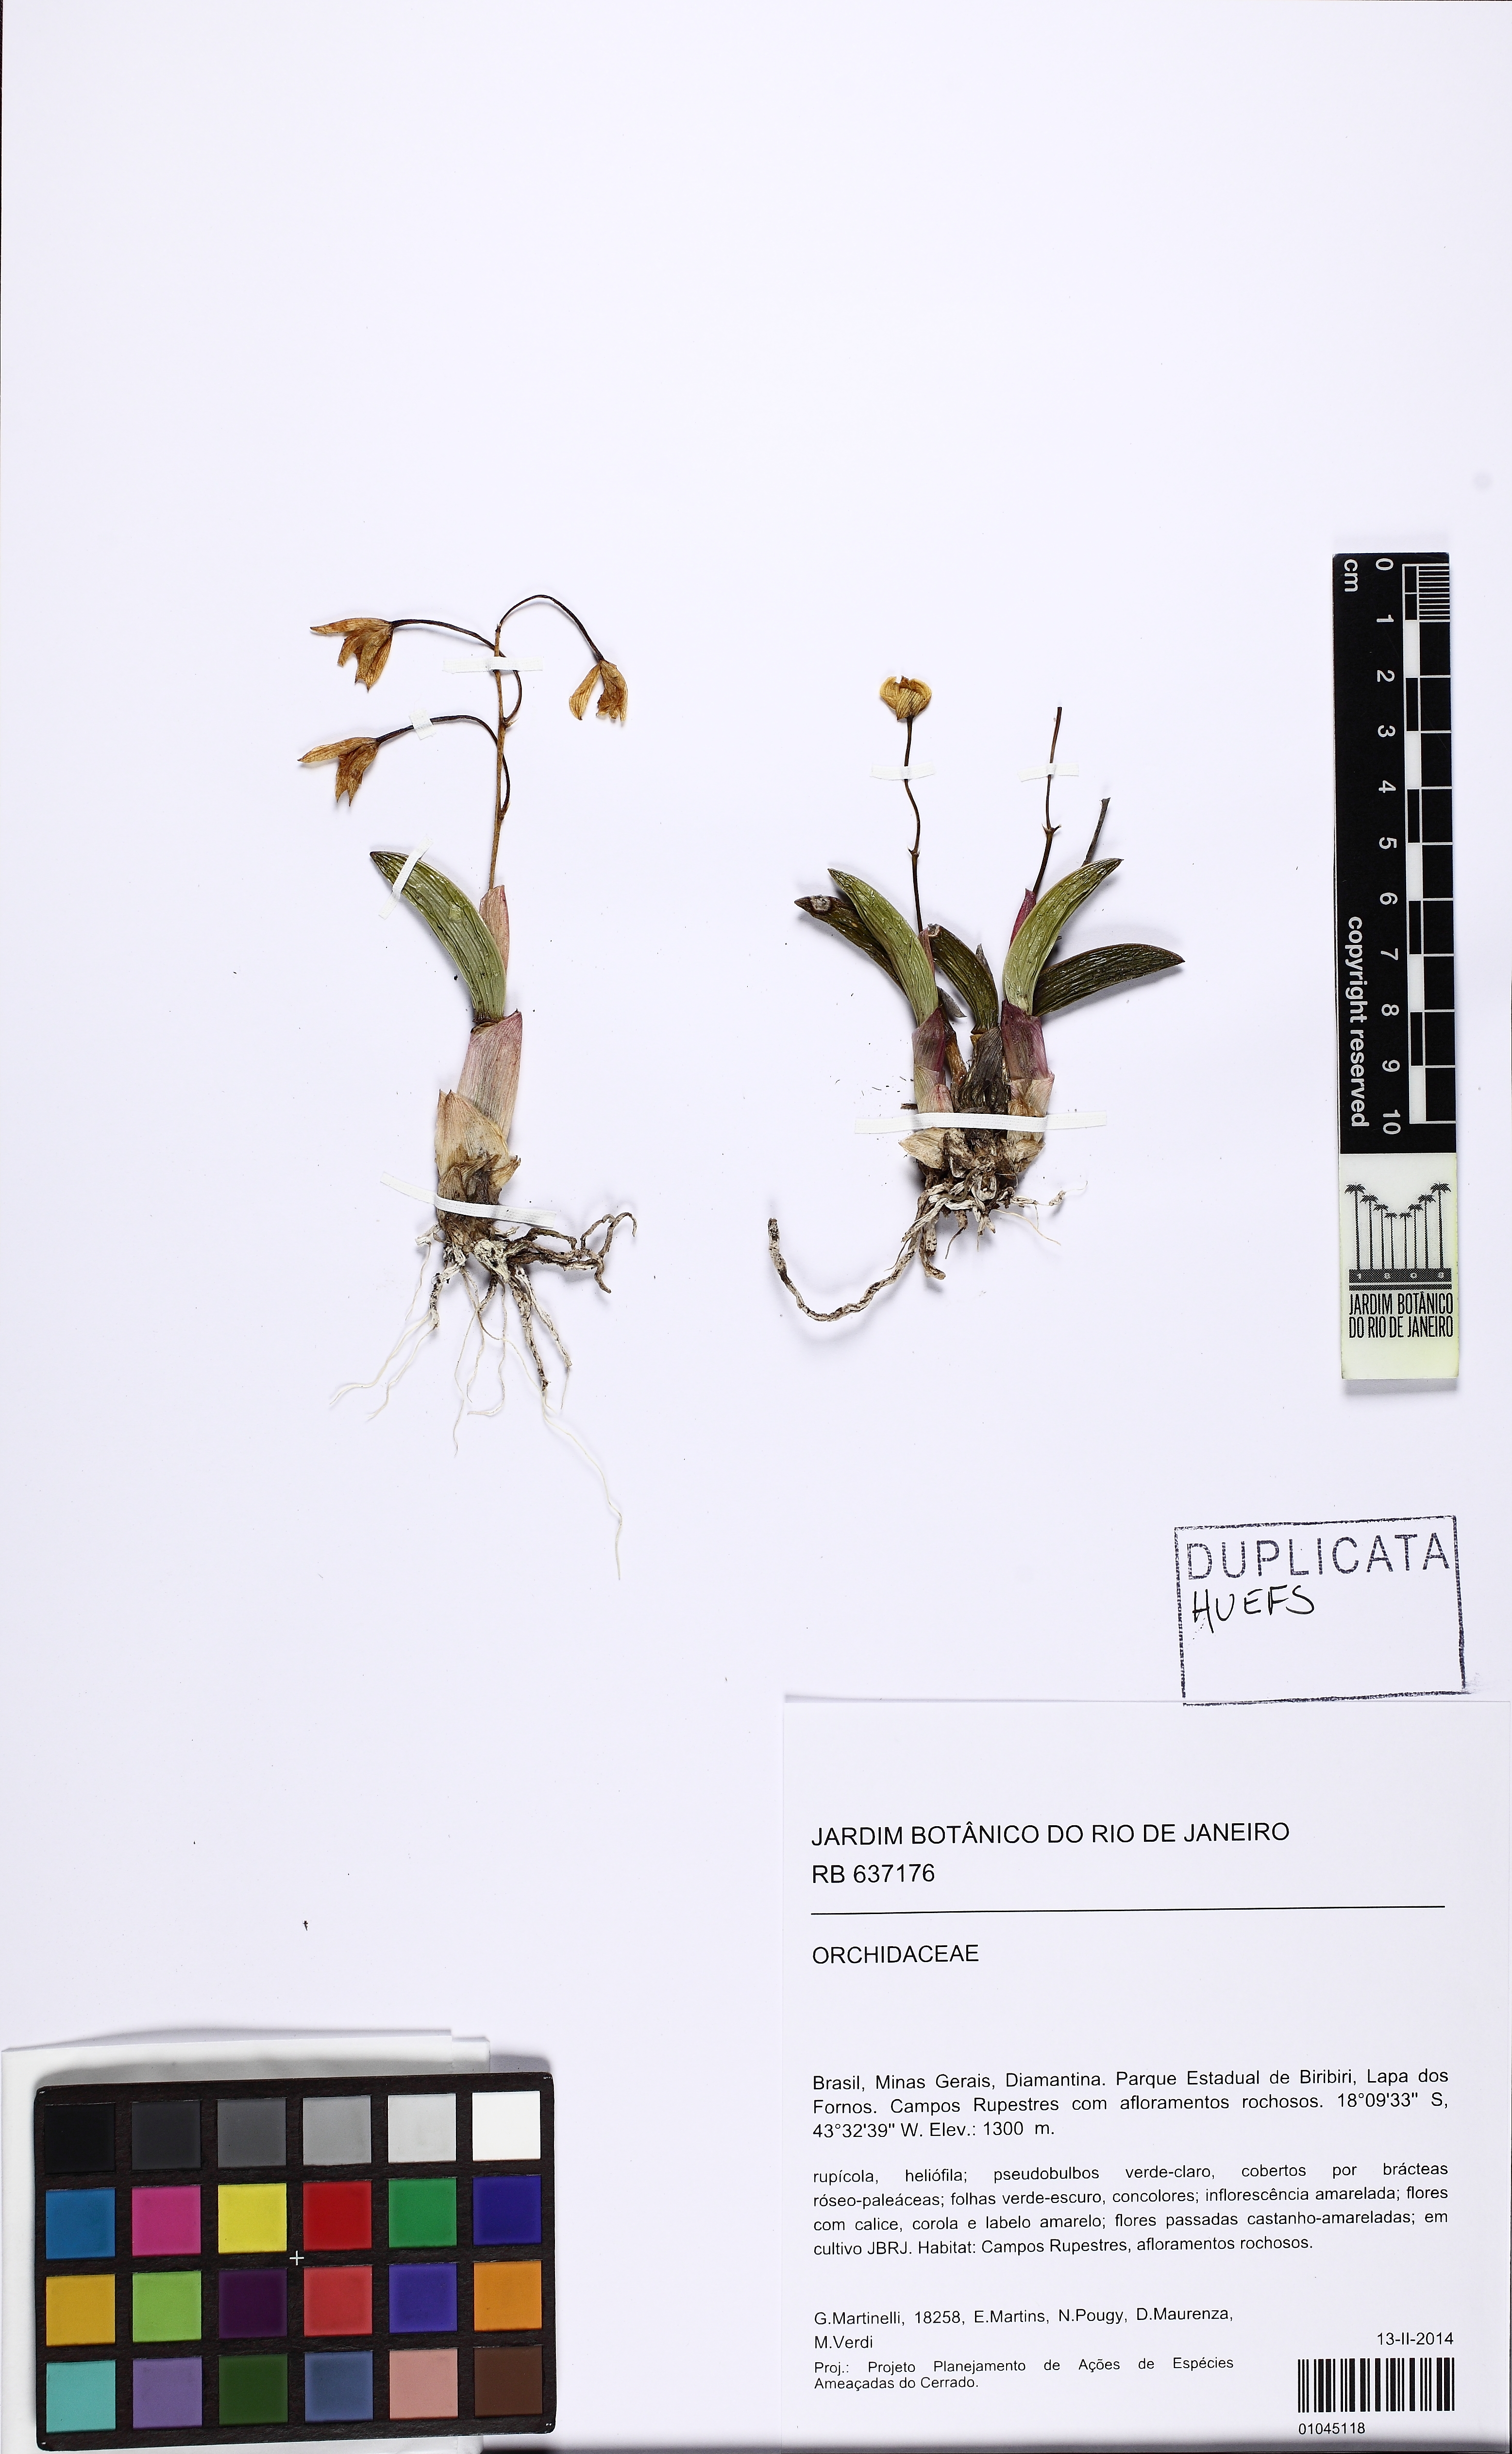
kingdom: Plantae
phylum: Tracheophyta
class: Liliopsida
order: Asparagales
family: Orchidaceae
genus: Cattleya
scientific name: Cattleya bradei
